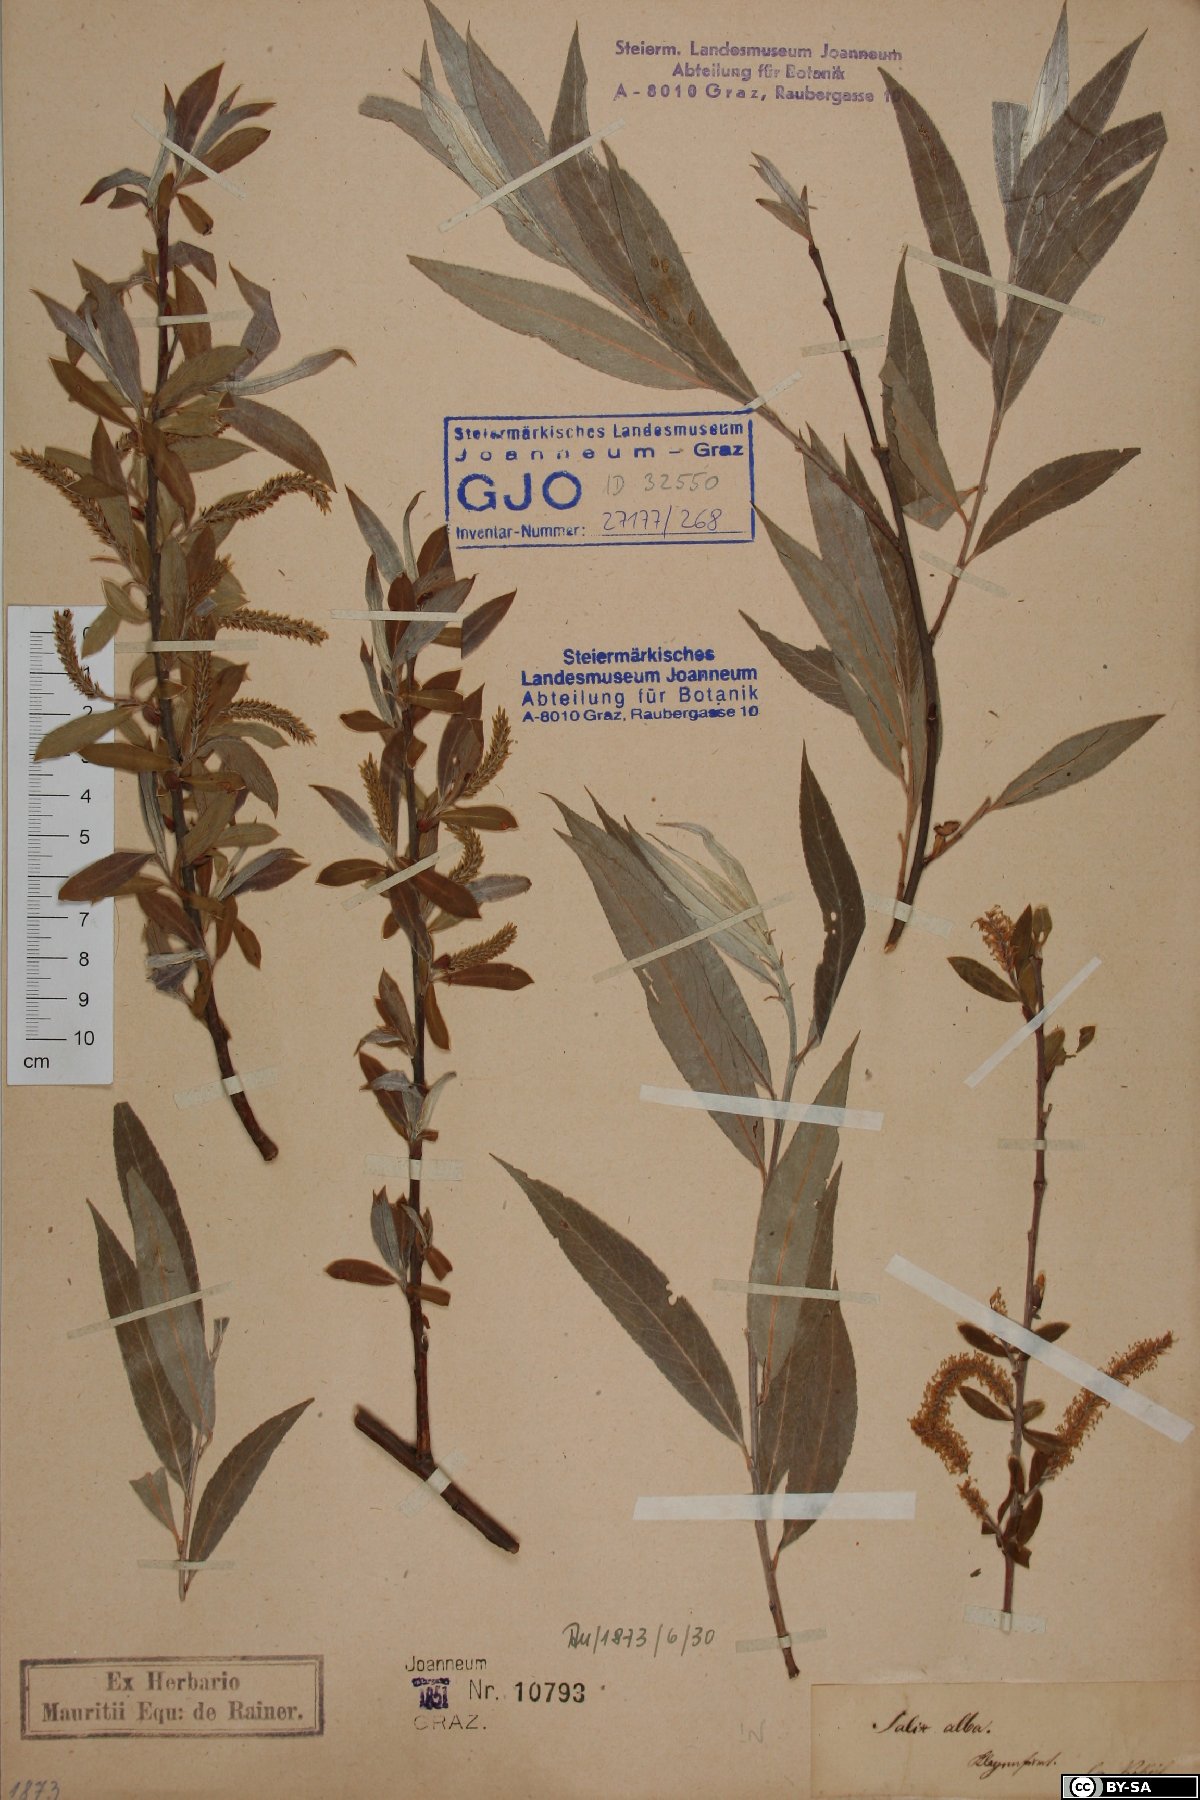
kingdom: Plantae
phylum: Tracheophyta
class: Magnoliopsida
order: Malpighiales
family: Salicaceae
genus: Salix
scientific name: Salix alba
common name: White willow
